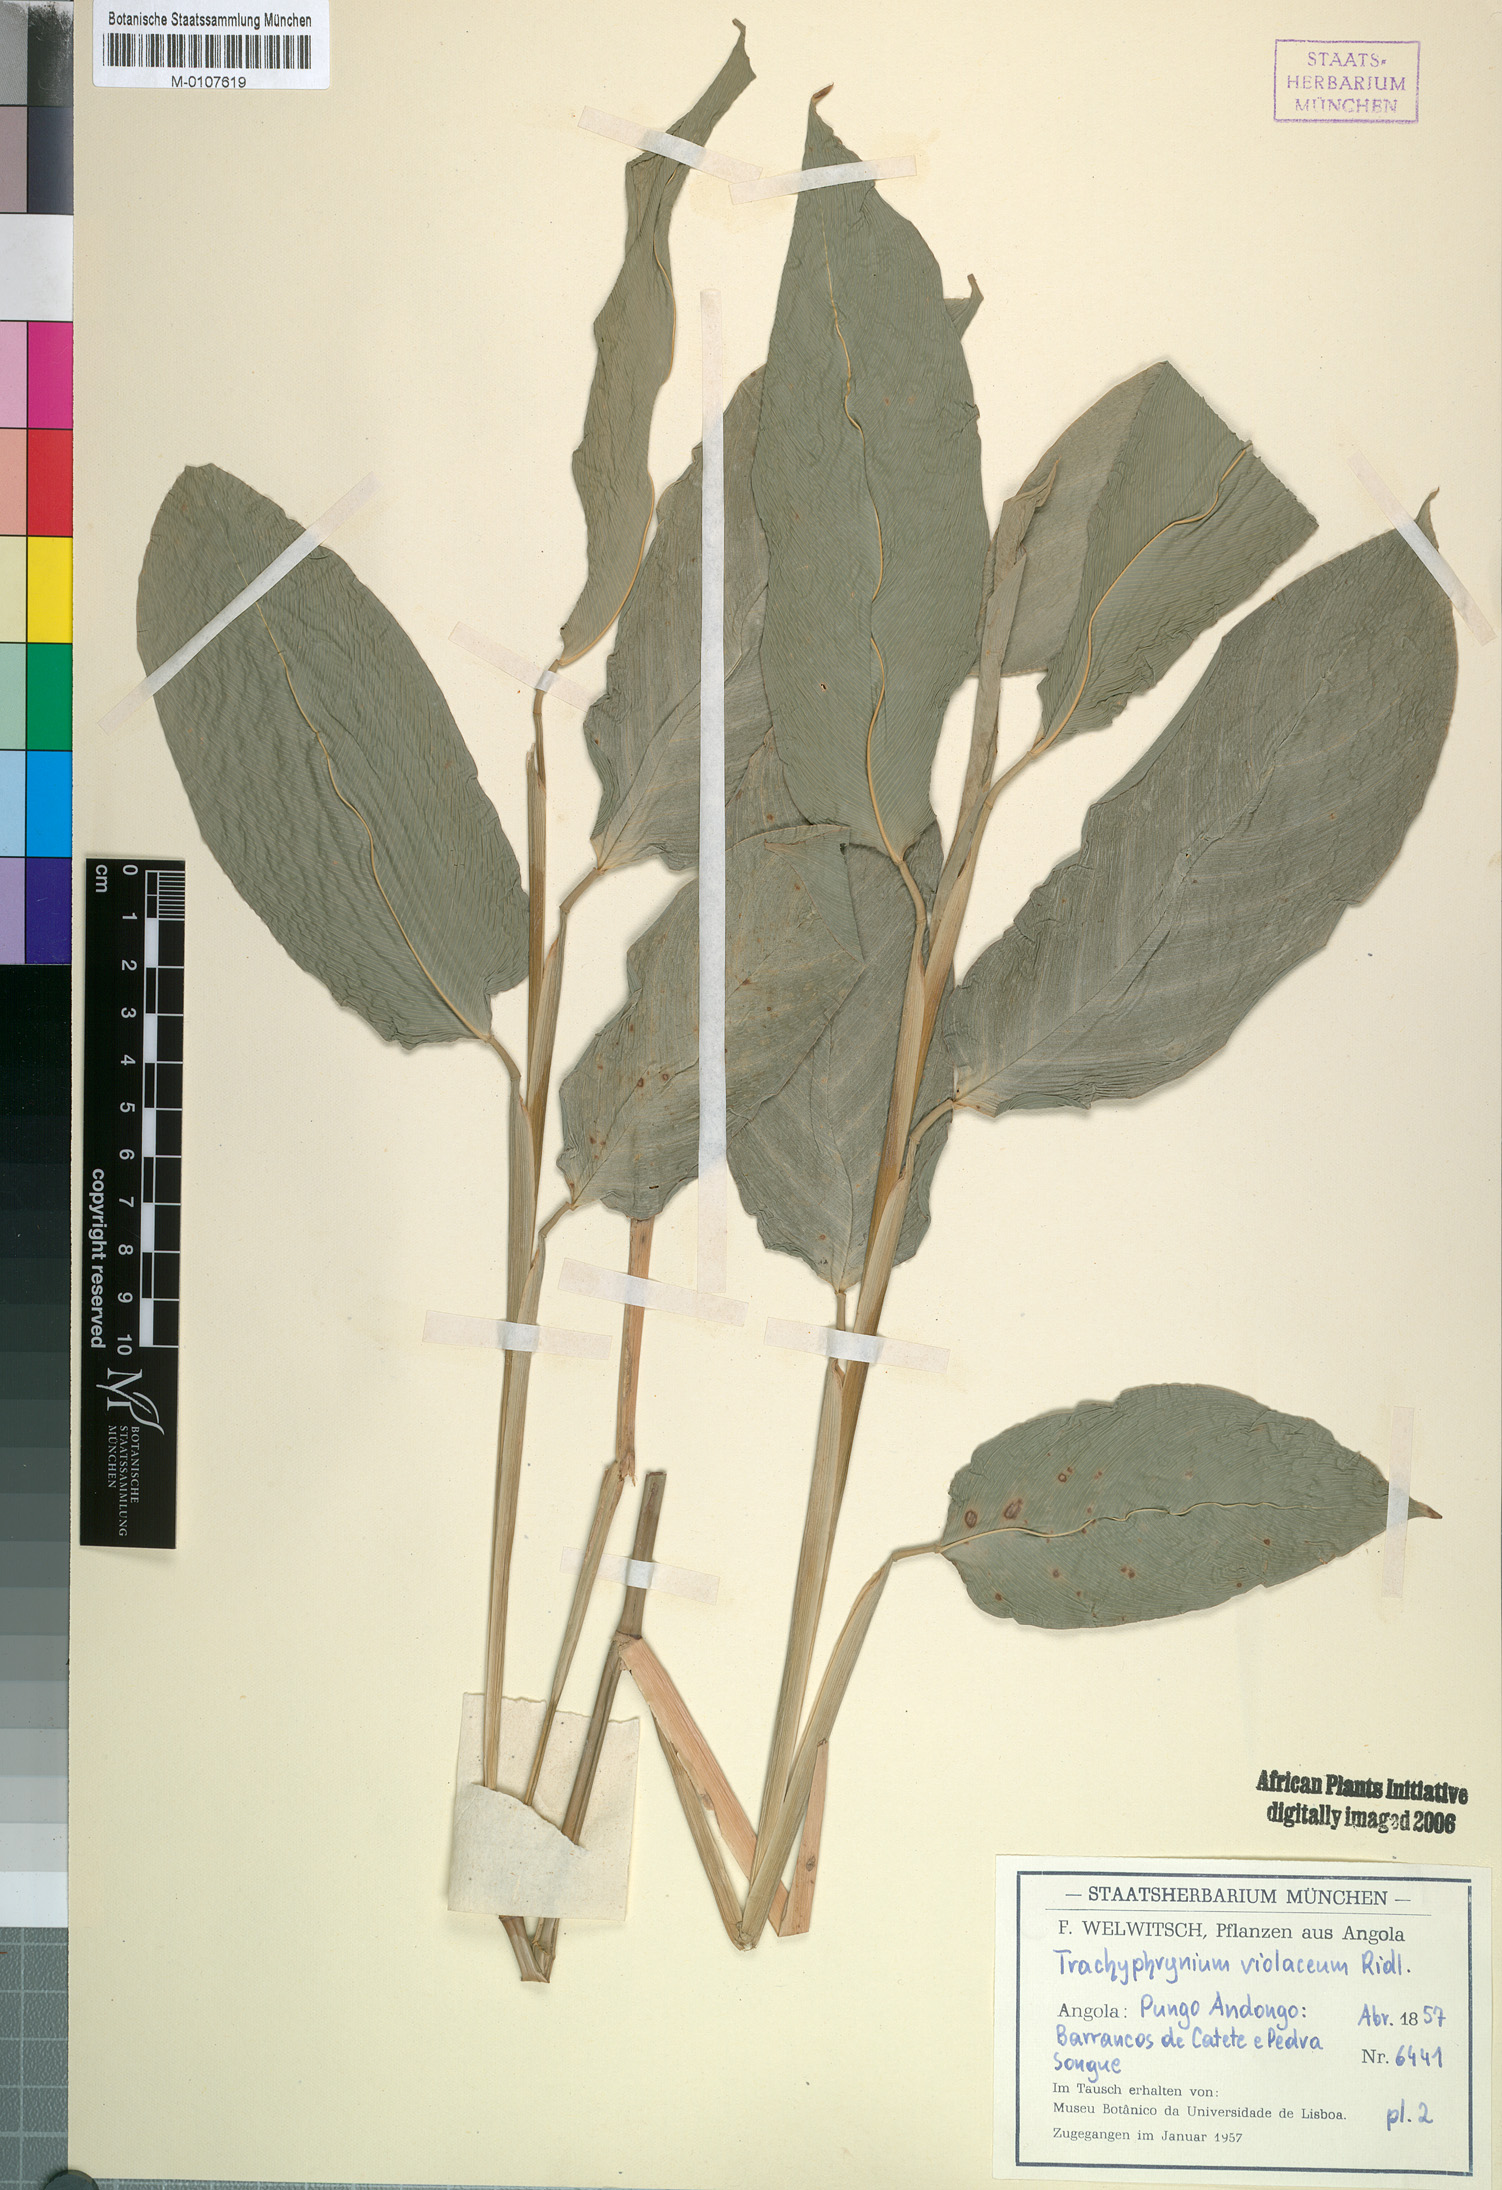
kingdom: Plantae
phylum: Tracheophyta
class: Liliopsida
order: Zingiberales
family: Marantaceae
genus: Hypselodelphys
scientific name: Hypselodelphys violacea
